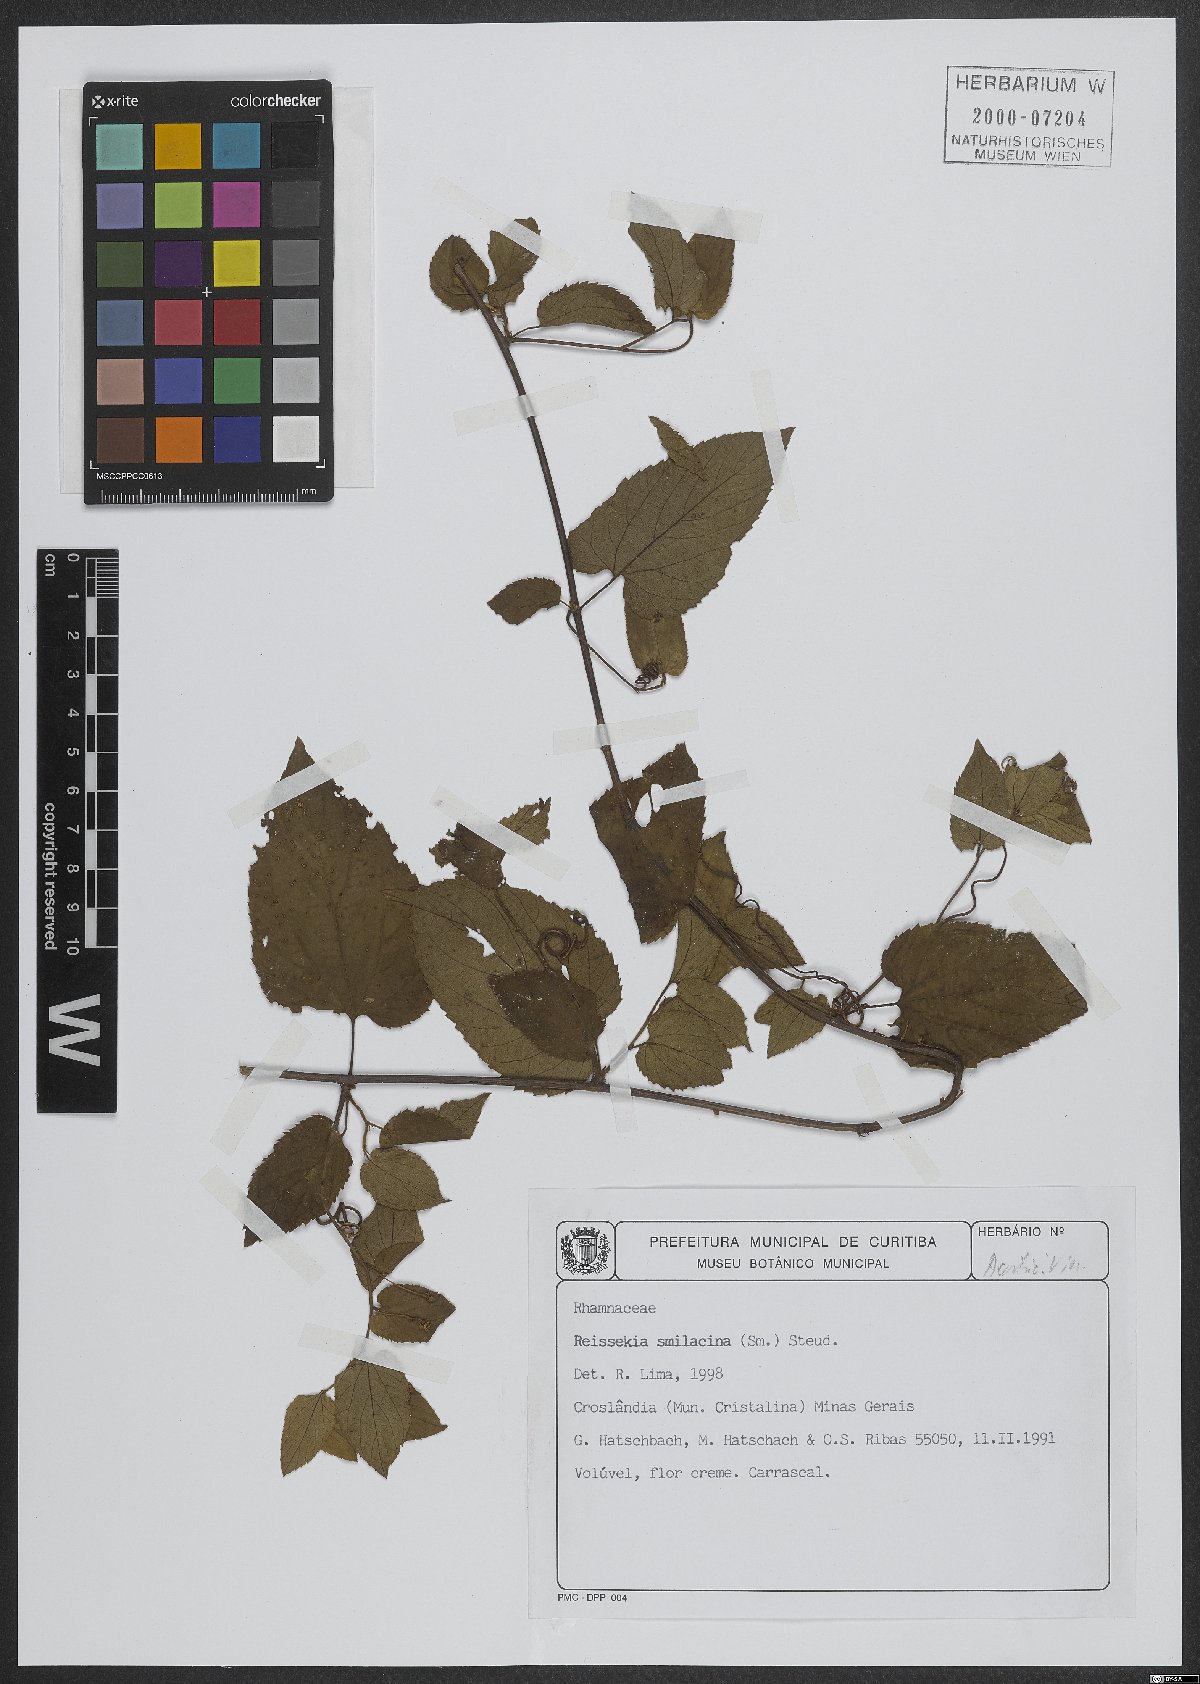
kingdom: Plantae
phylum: Tracheophyta
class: Magnoliopsida
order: Rosales
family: Rhamnaceae
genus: Reissekia
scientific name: Reissekia smilacina
